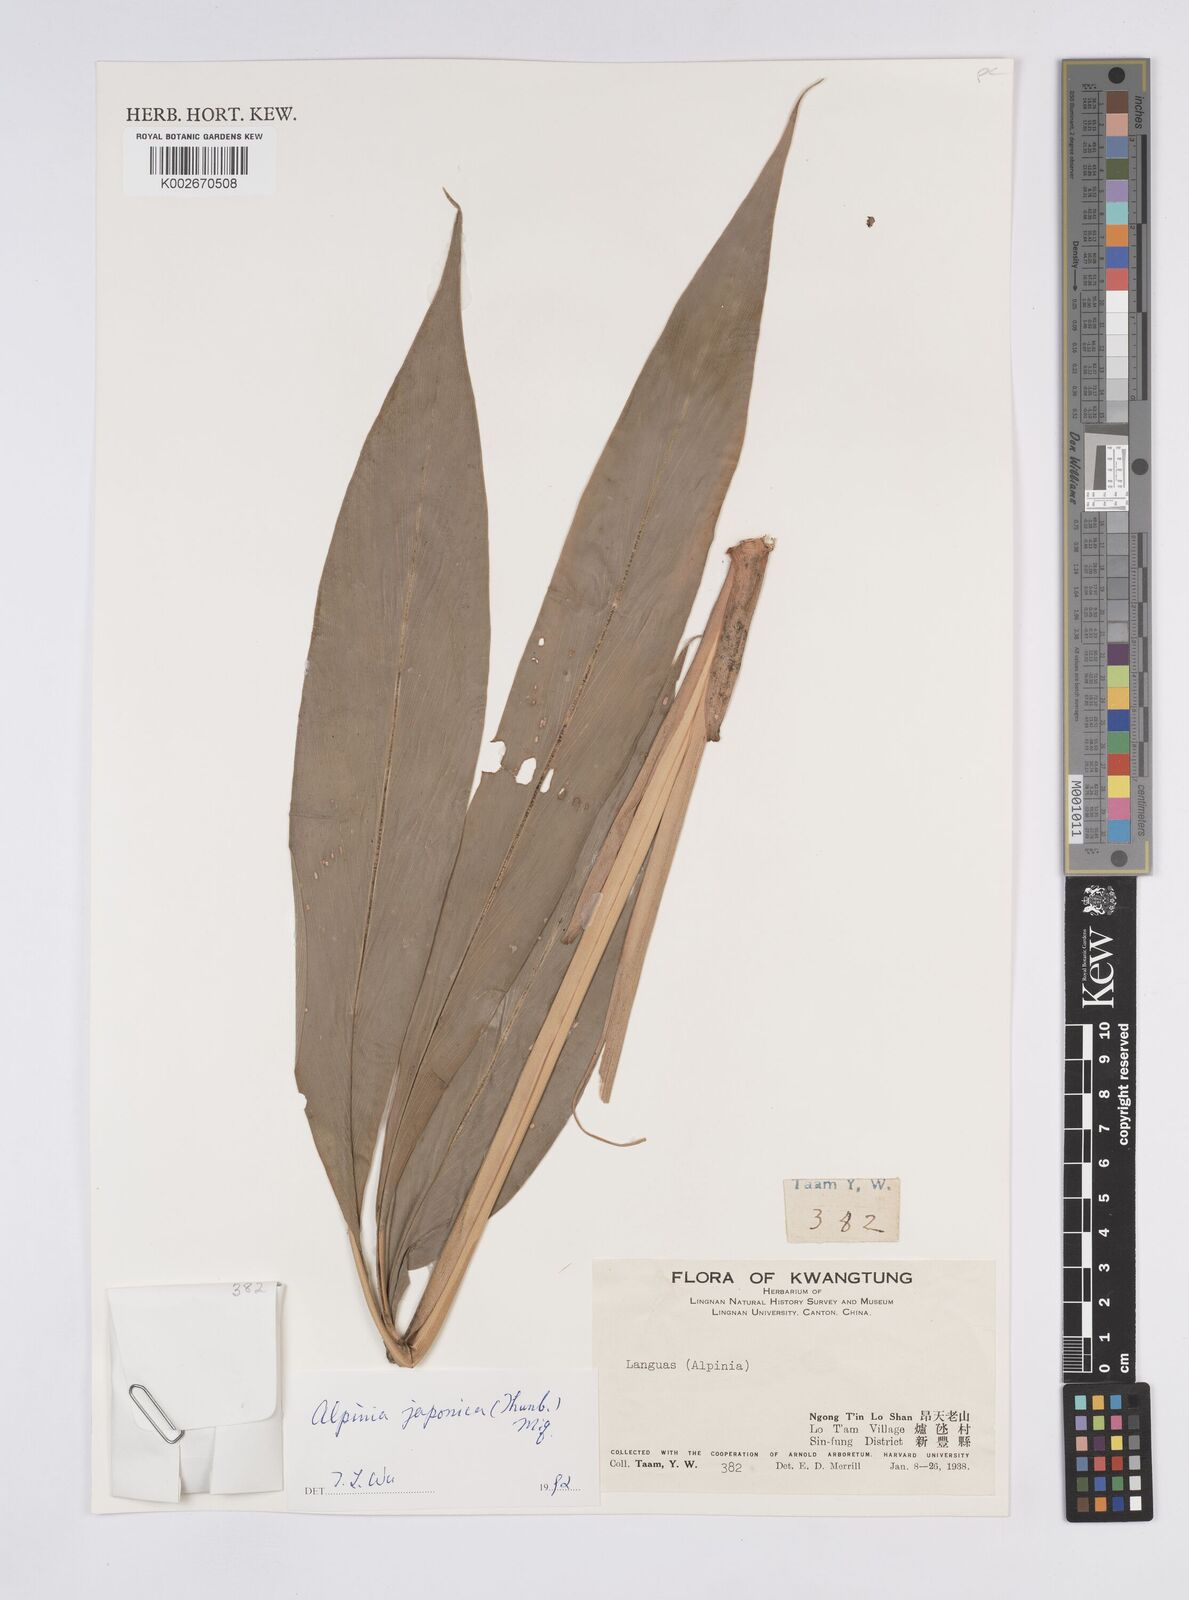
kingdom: Plantae
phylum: Tracheophyta
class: Liliopsida
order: Zingiberales
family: Zingiberaceae
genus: Alpinia
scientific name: Alpinia japonica
